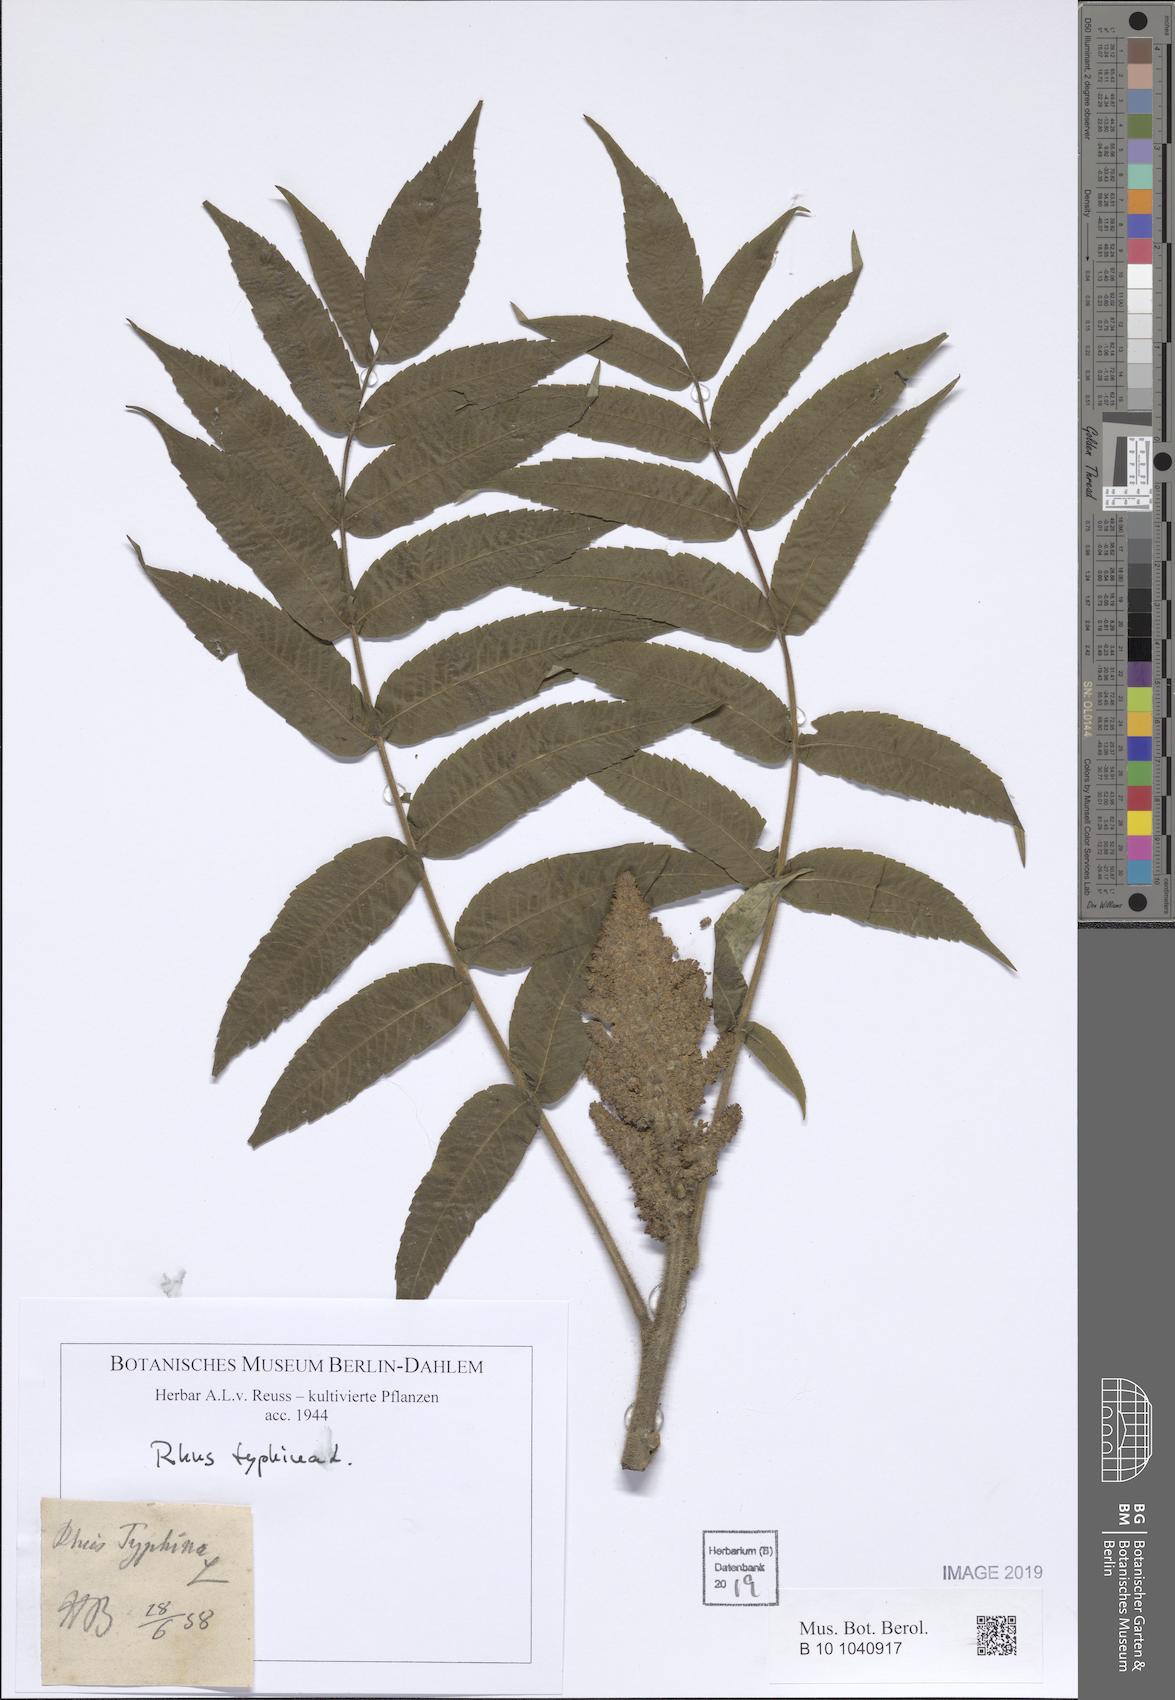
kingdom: Plantae
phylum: Tracheophyta
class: Magnoliopsida
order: Sapindales
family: Anacardiaceae
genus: Rhus
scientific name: Rhus typhina
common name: Staghorn sumac
